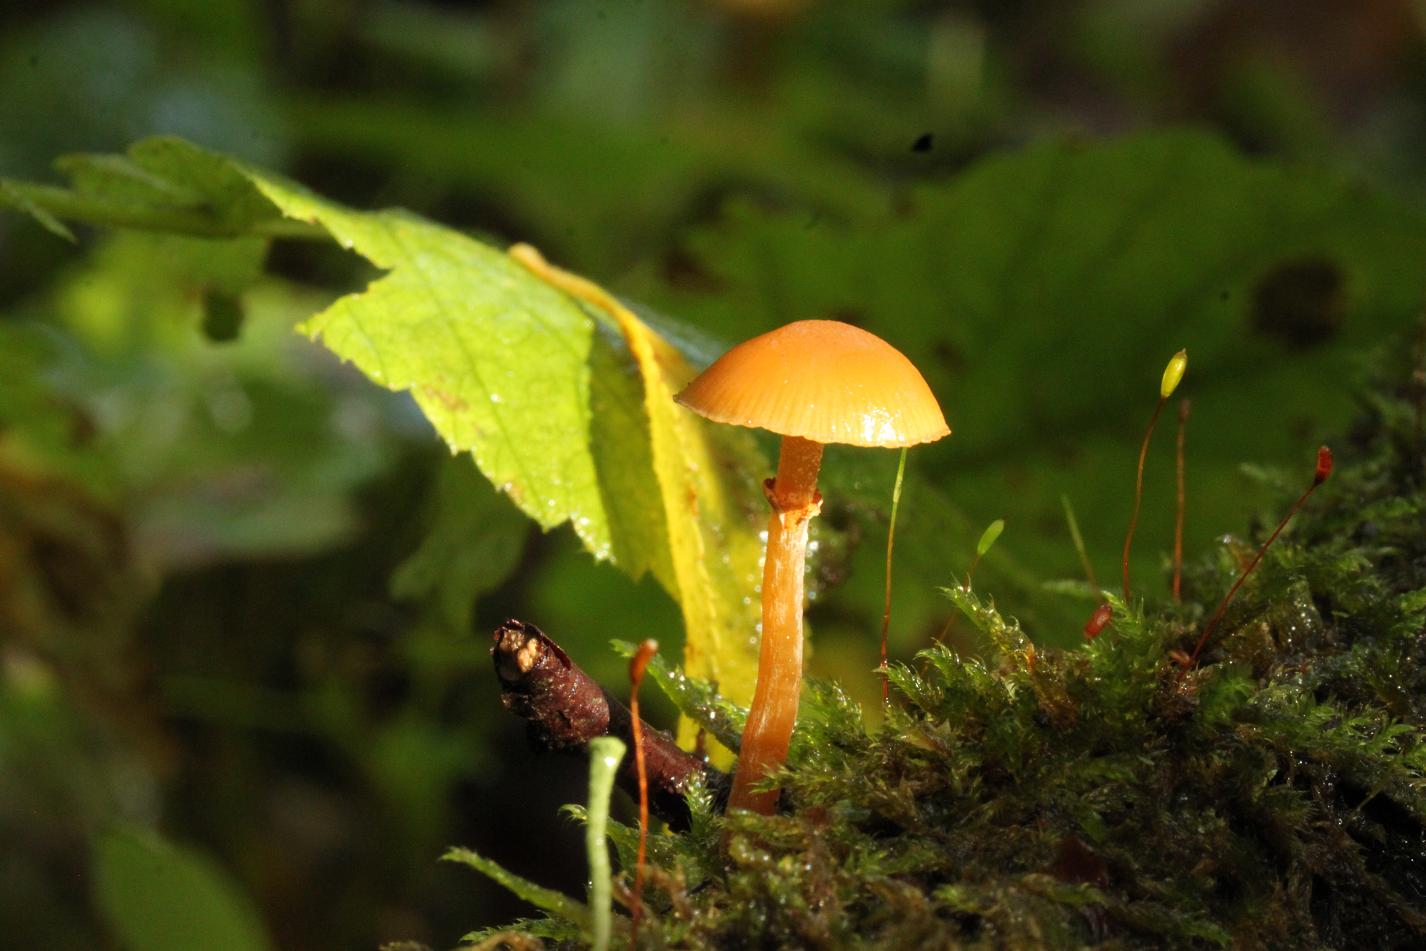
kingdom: Fungi
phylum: Basidiomycota
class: Agaricomycetes
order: Agaricales
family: Hymenogastraceae
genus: Galerina
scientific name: Galerina marginata
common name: randbæltet hjelmhat
